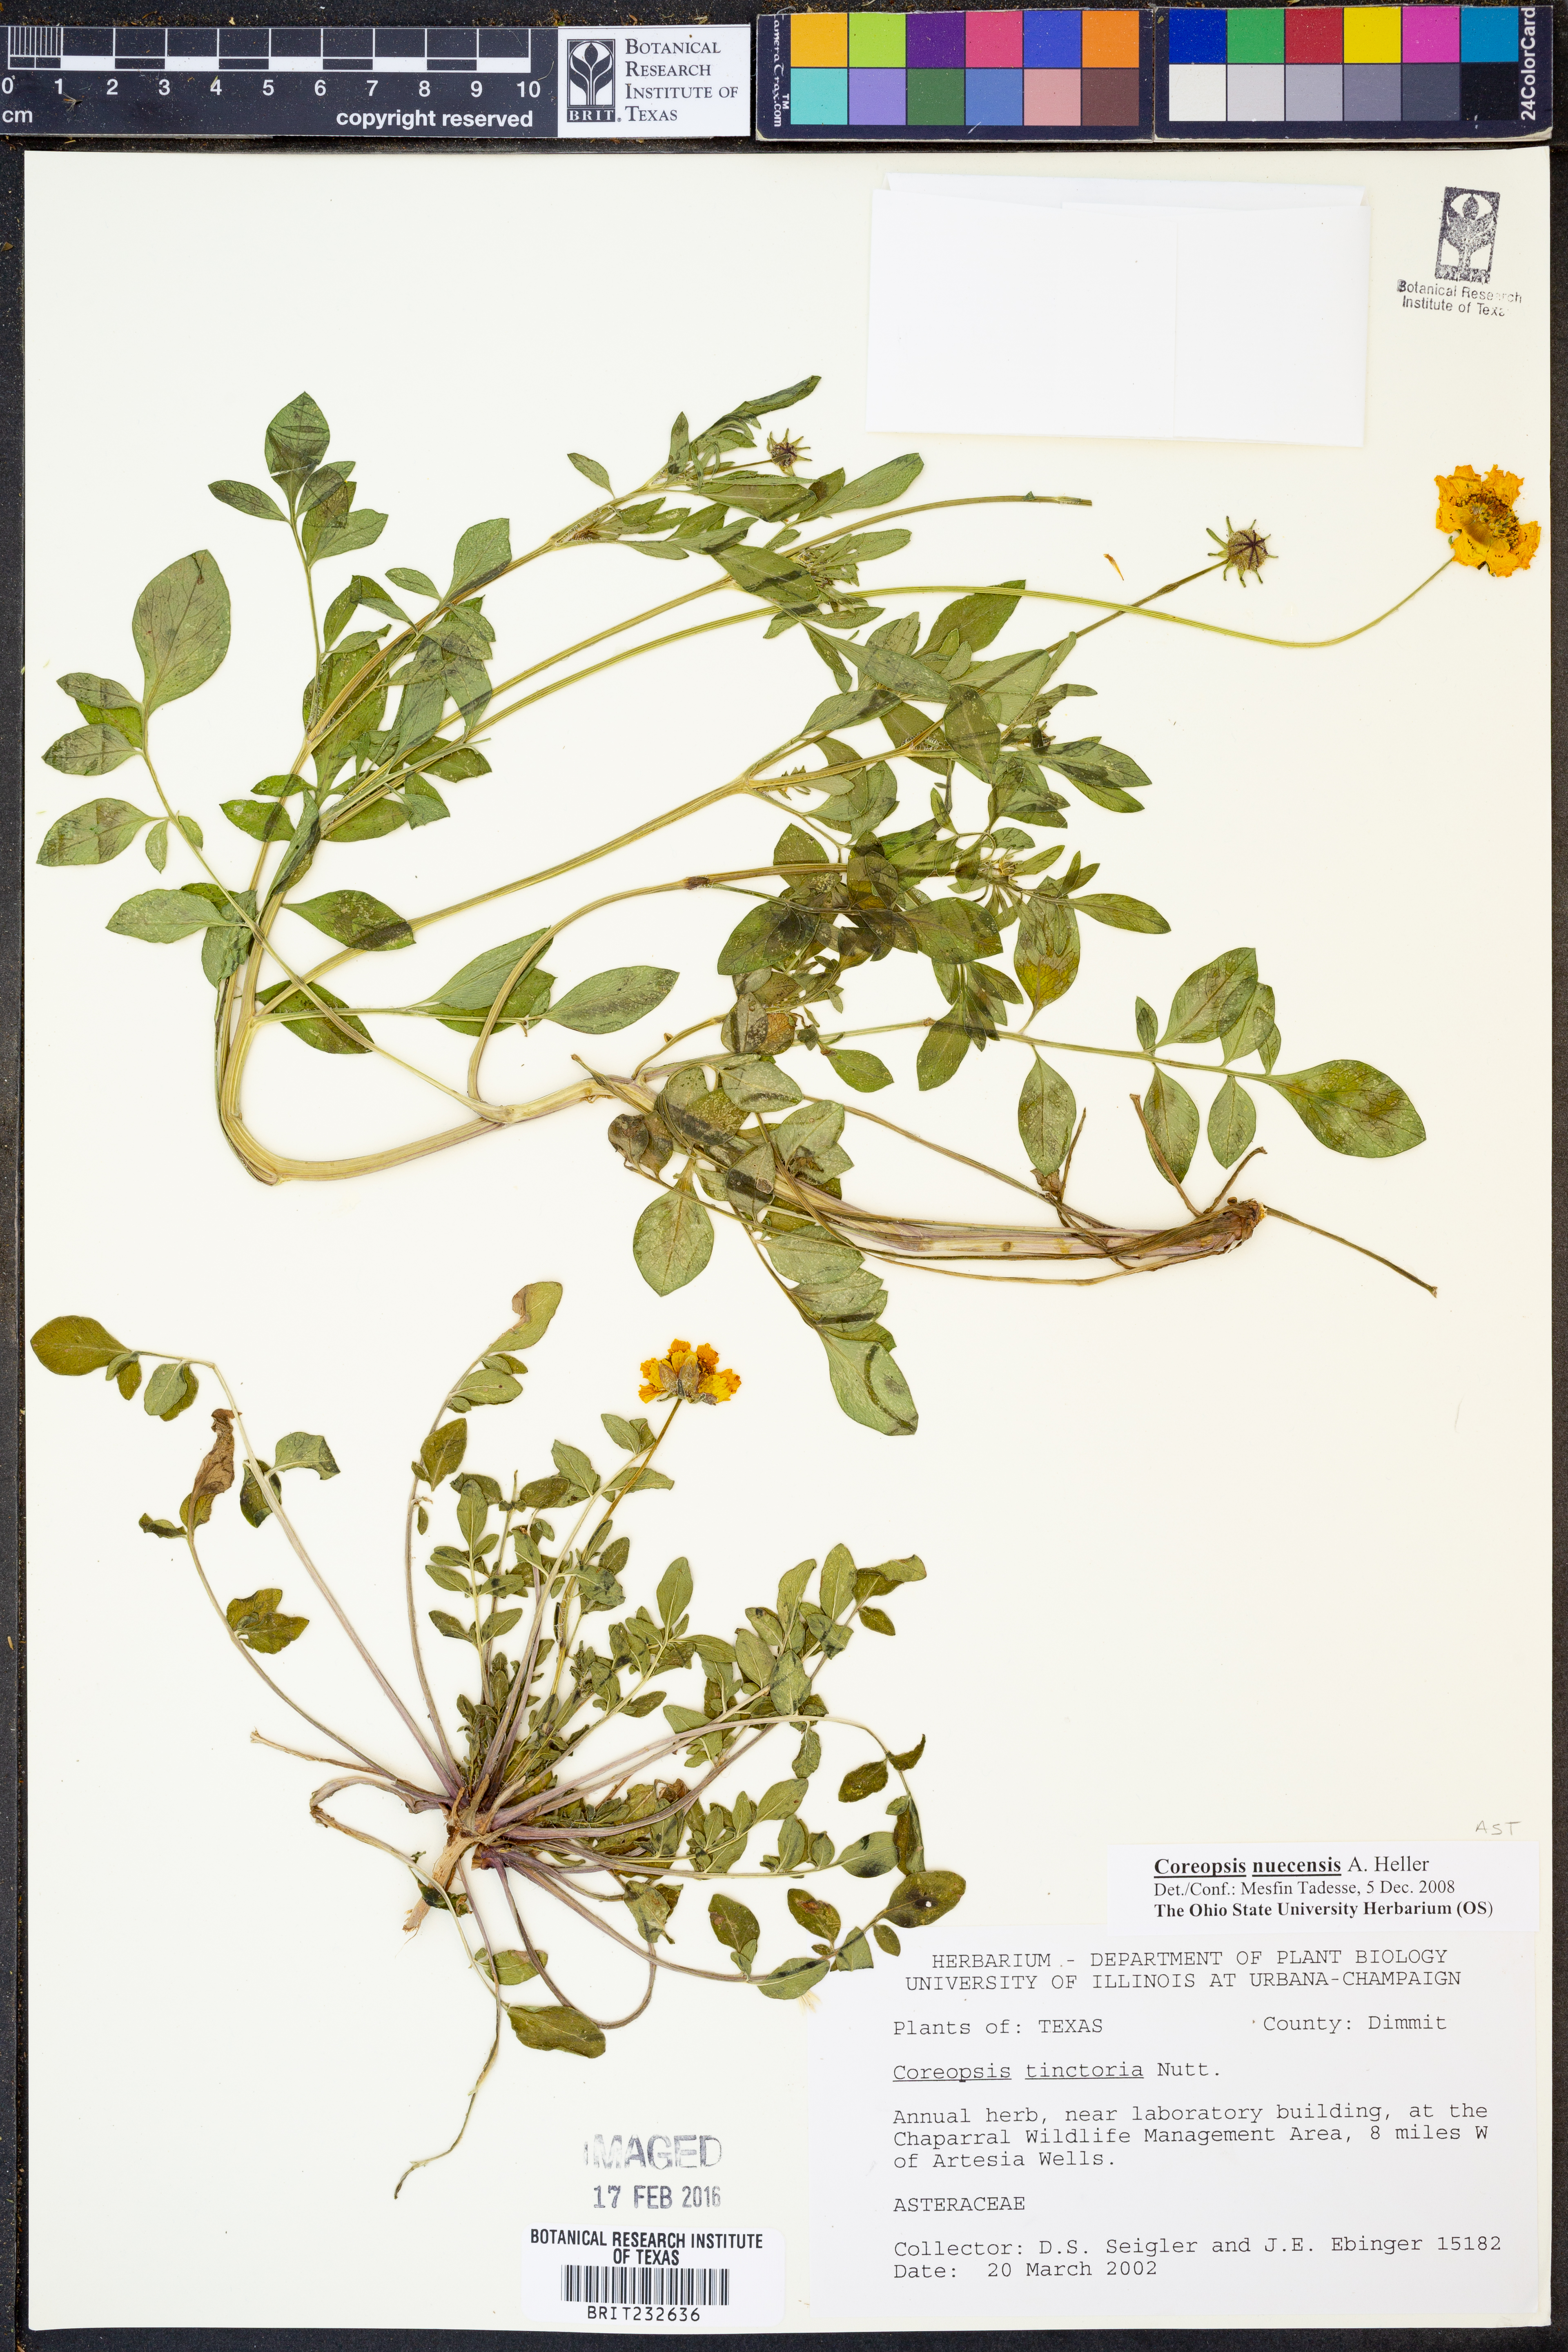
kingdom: Plantae
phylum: Tracheophyta
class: Magnoliopsida
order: Asterales
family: Asteraceae
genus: Coreopsis
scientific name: Coreopsis nuecensis
